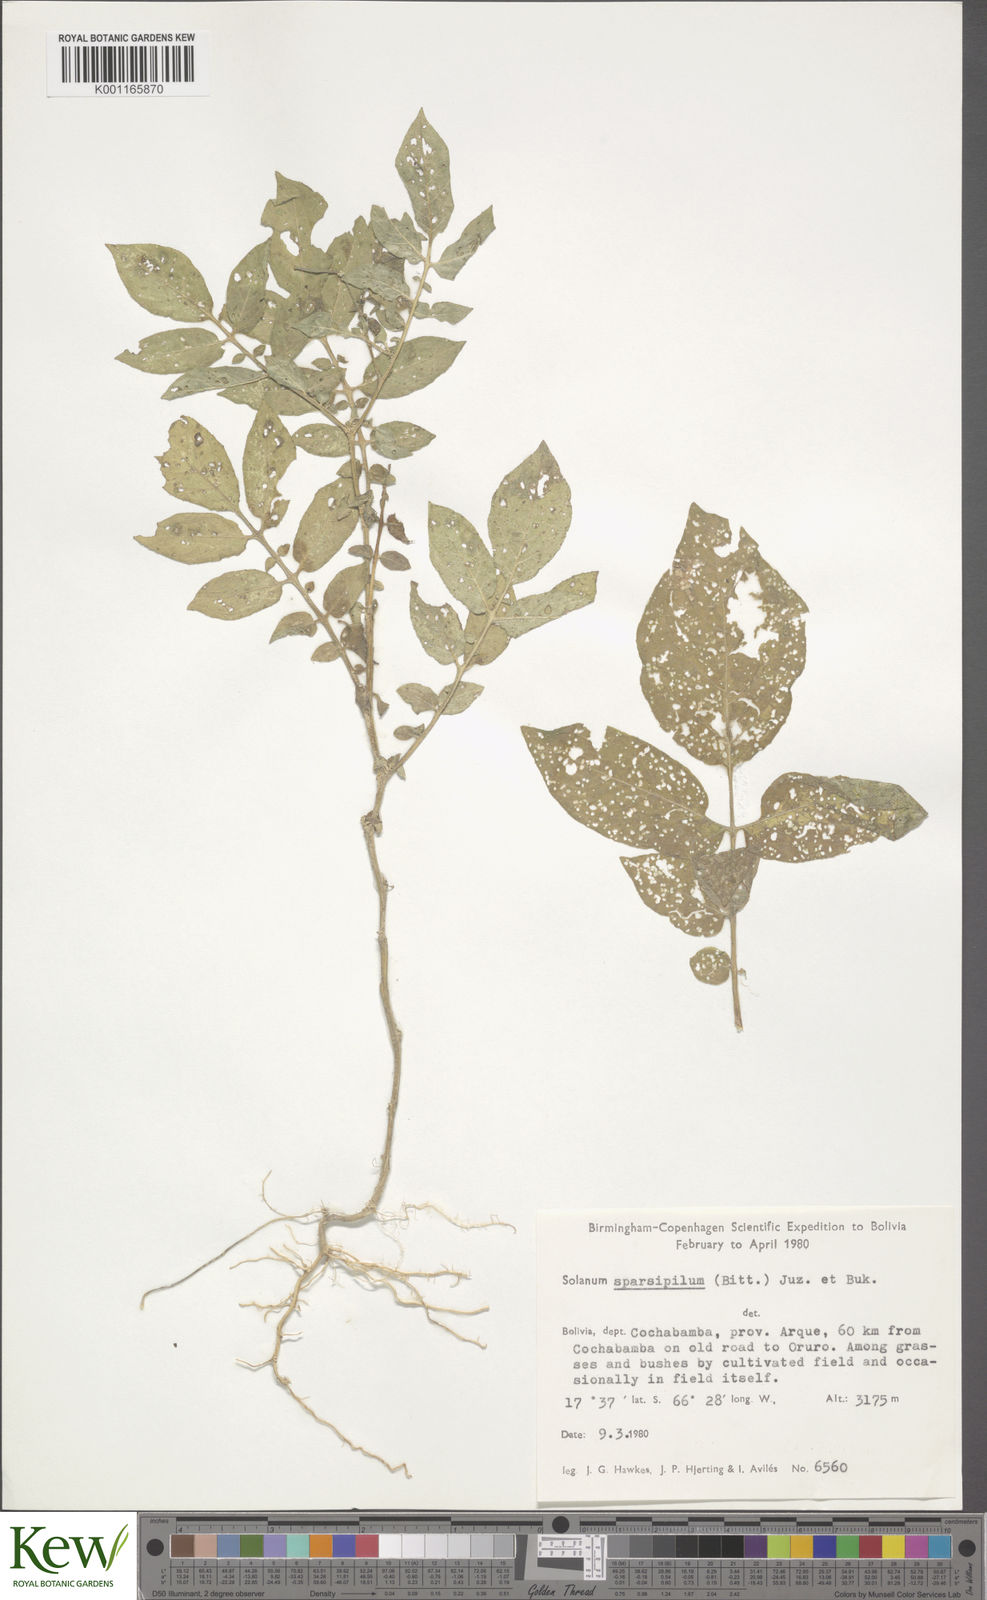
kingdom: Plantae
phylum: Tracheophyta
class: Magnoliopsida
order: Solanales
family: Solanaceae
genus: Solanum
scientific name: Solanum brevicaule
